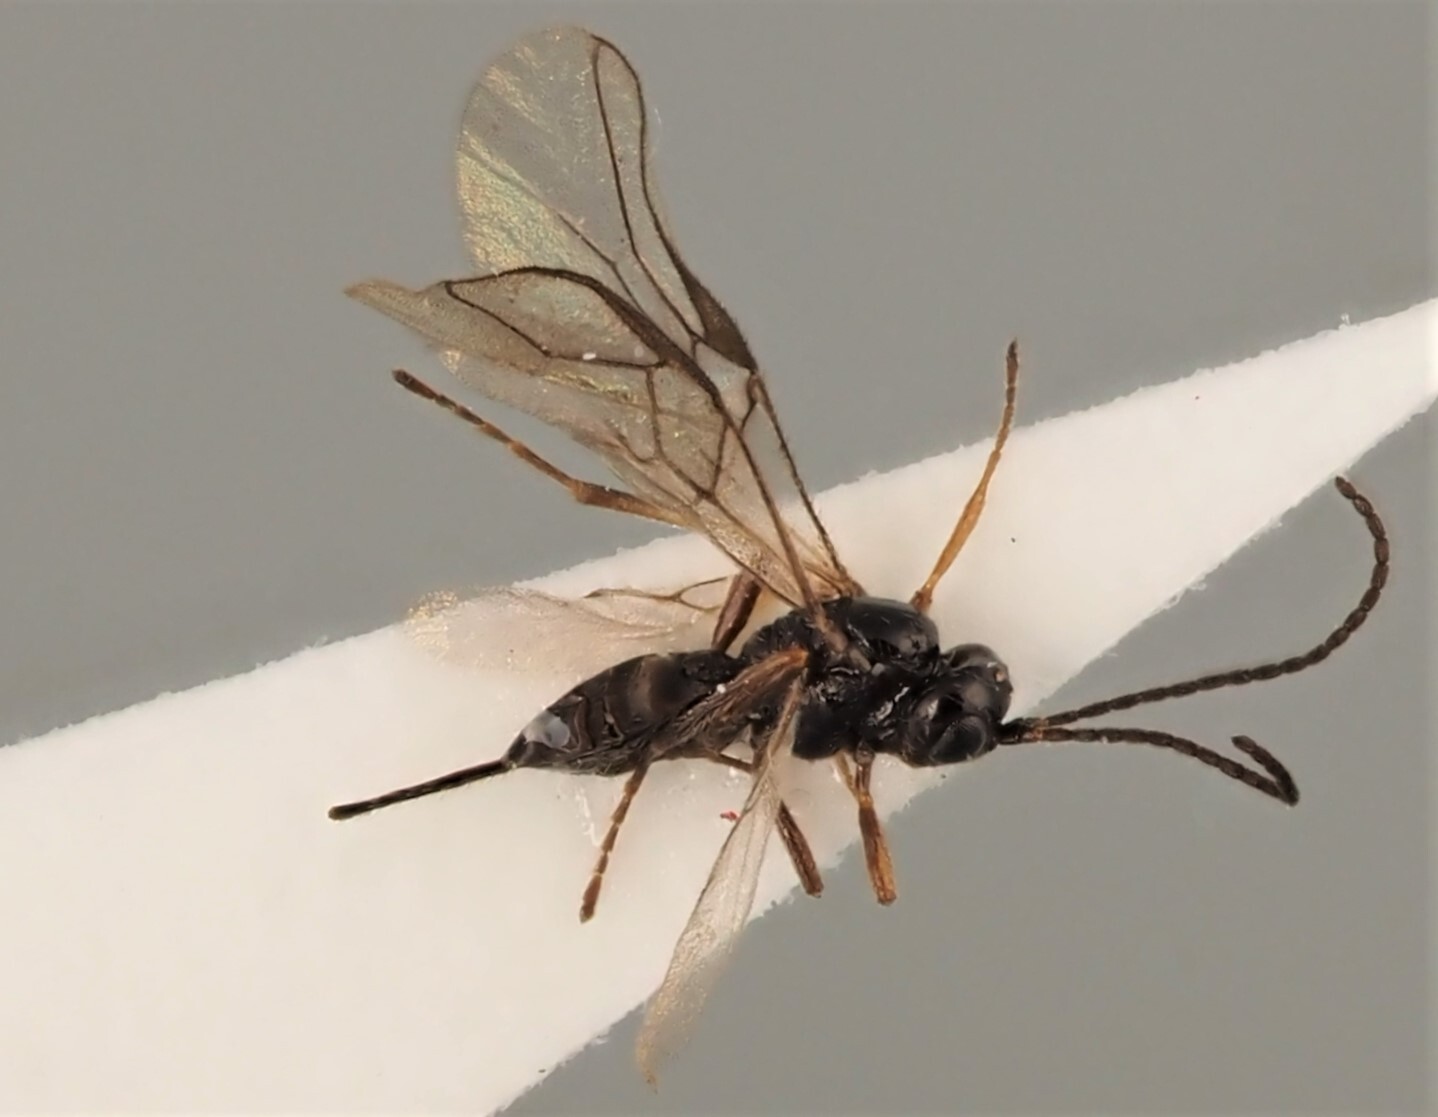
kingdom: Animalia
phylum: Arthropoda
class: Insecta
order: Hymenoptera
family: Braconidae
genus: Opius
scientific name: Opius pygmaeator
